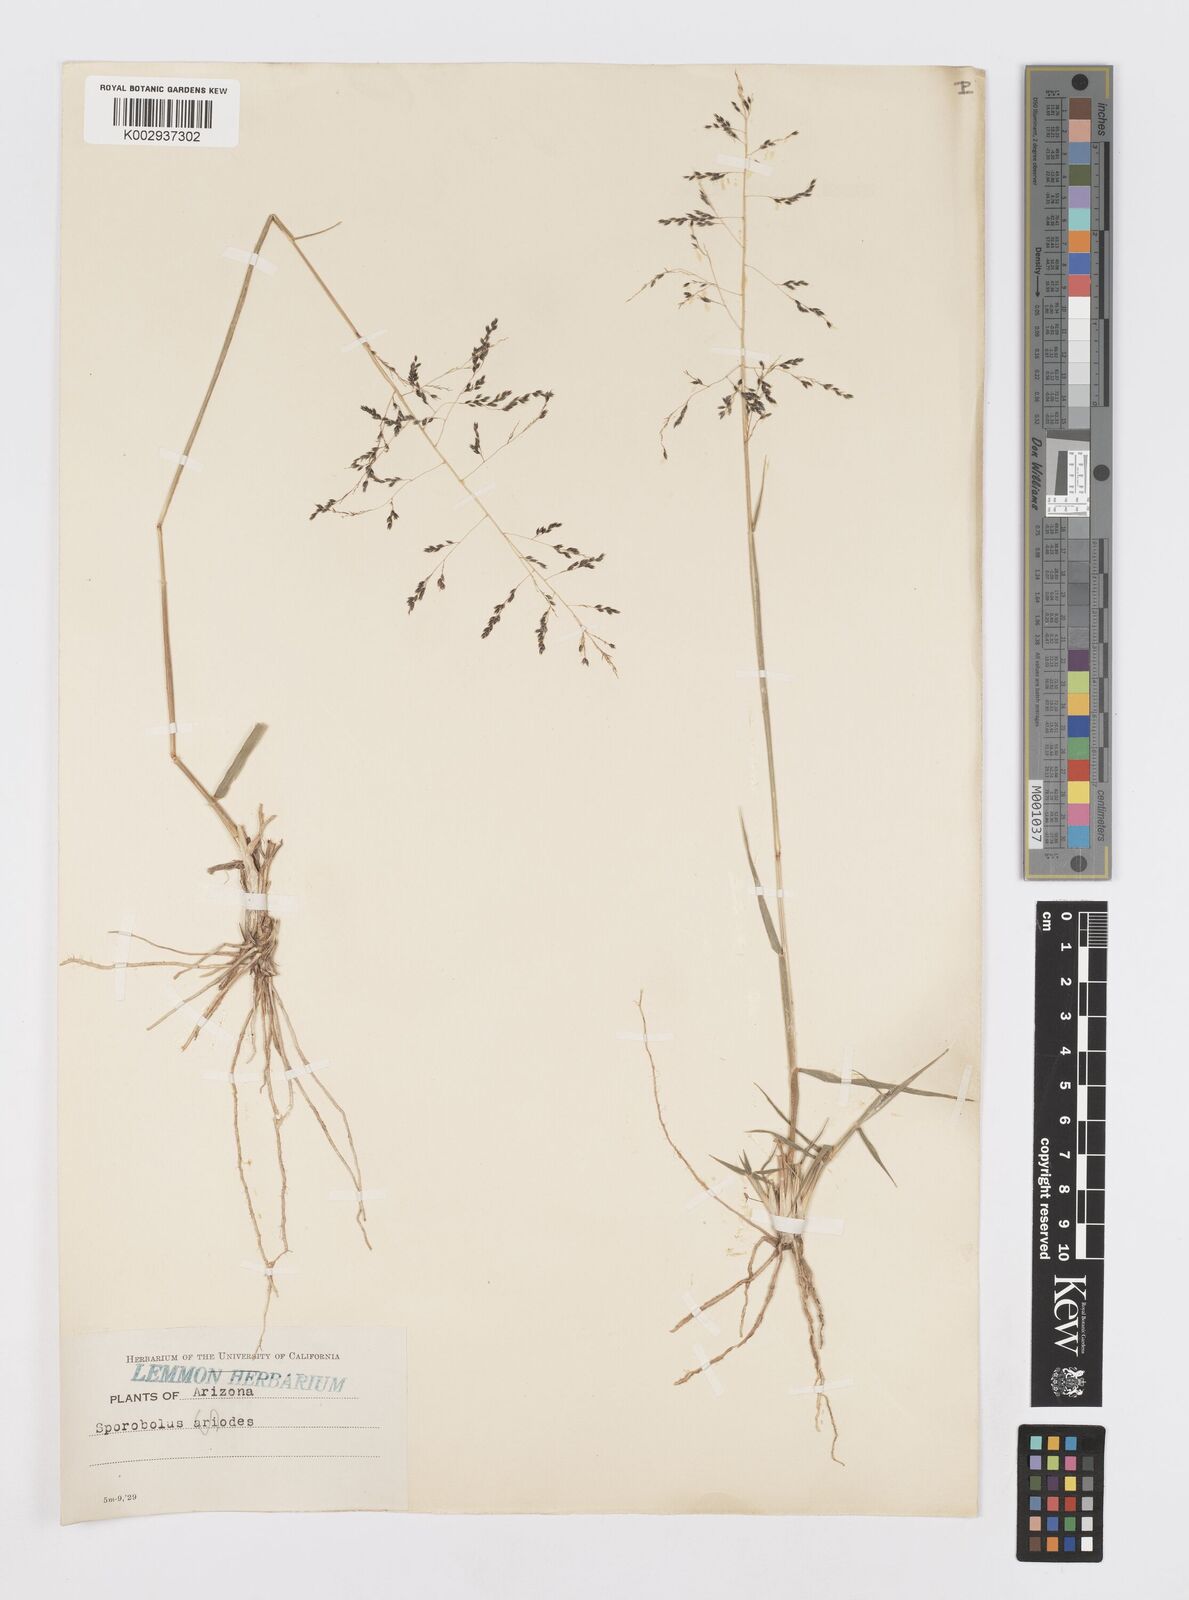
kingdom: Plantae
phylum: Tracheophyta
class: Liliopsida
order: Poales
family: Poaceae
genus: Sporobolus
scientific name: Sporobolus airoides
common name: Alkali sacaton
